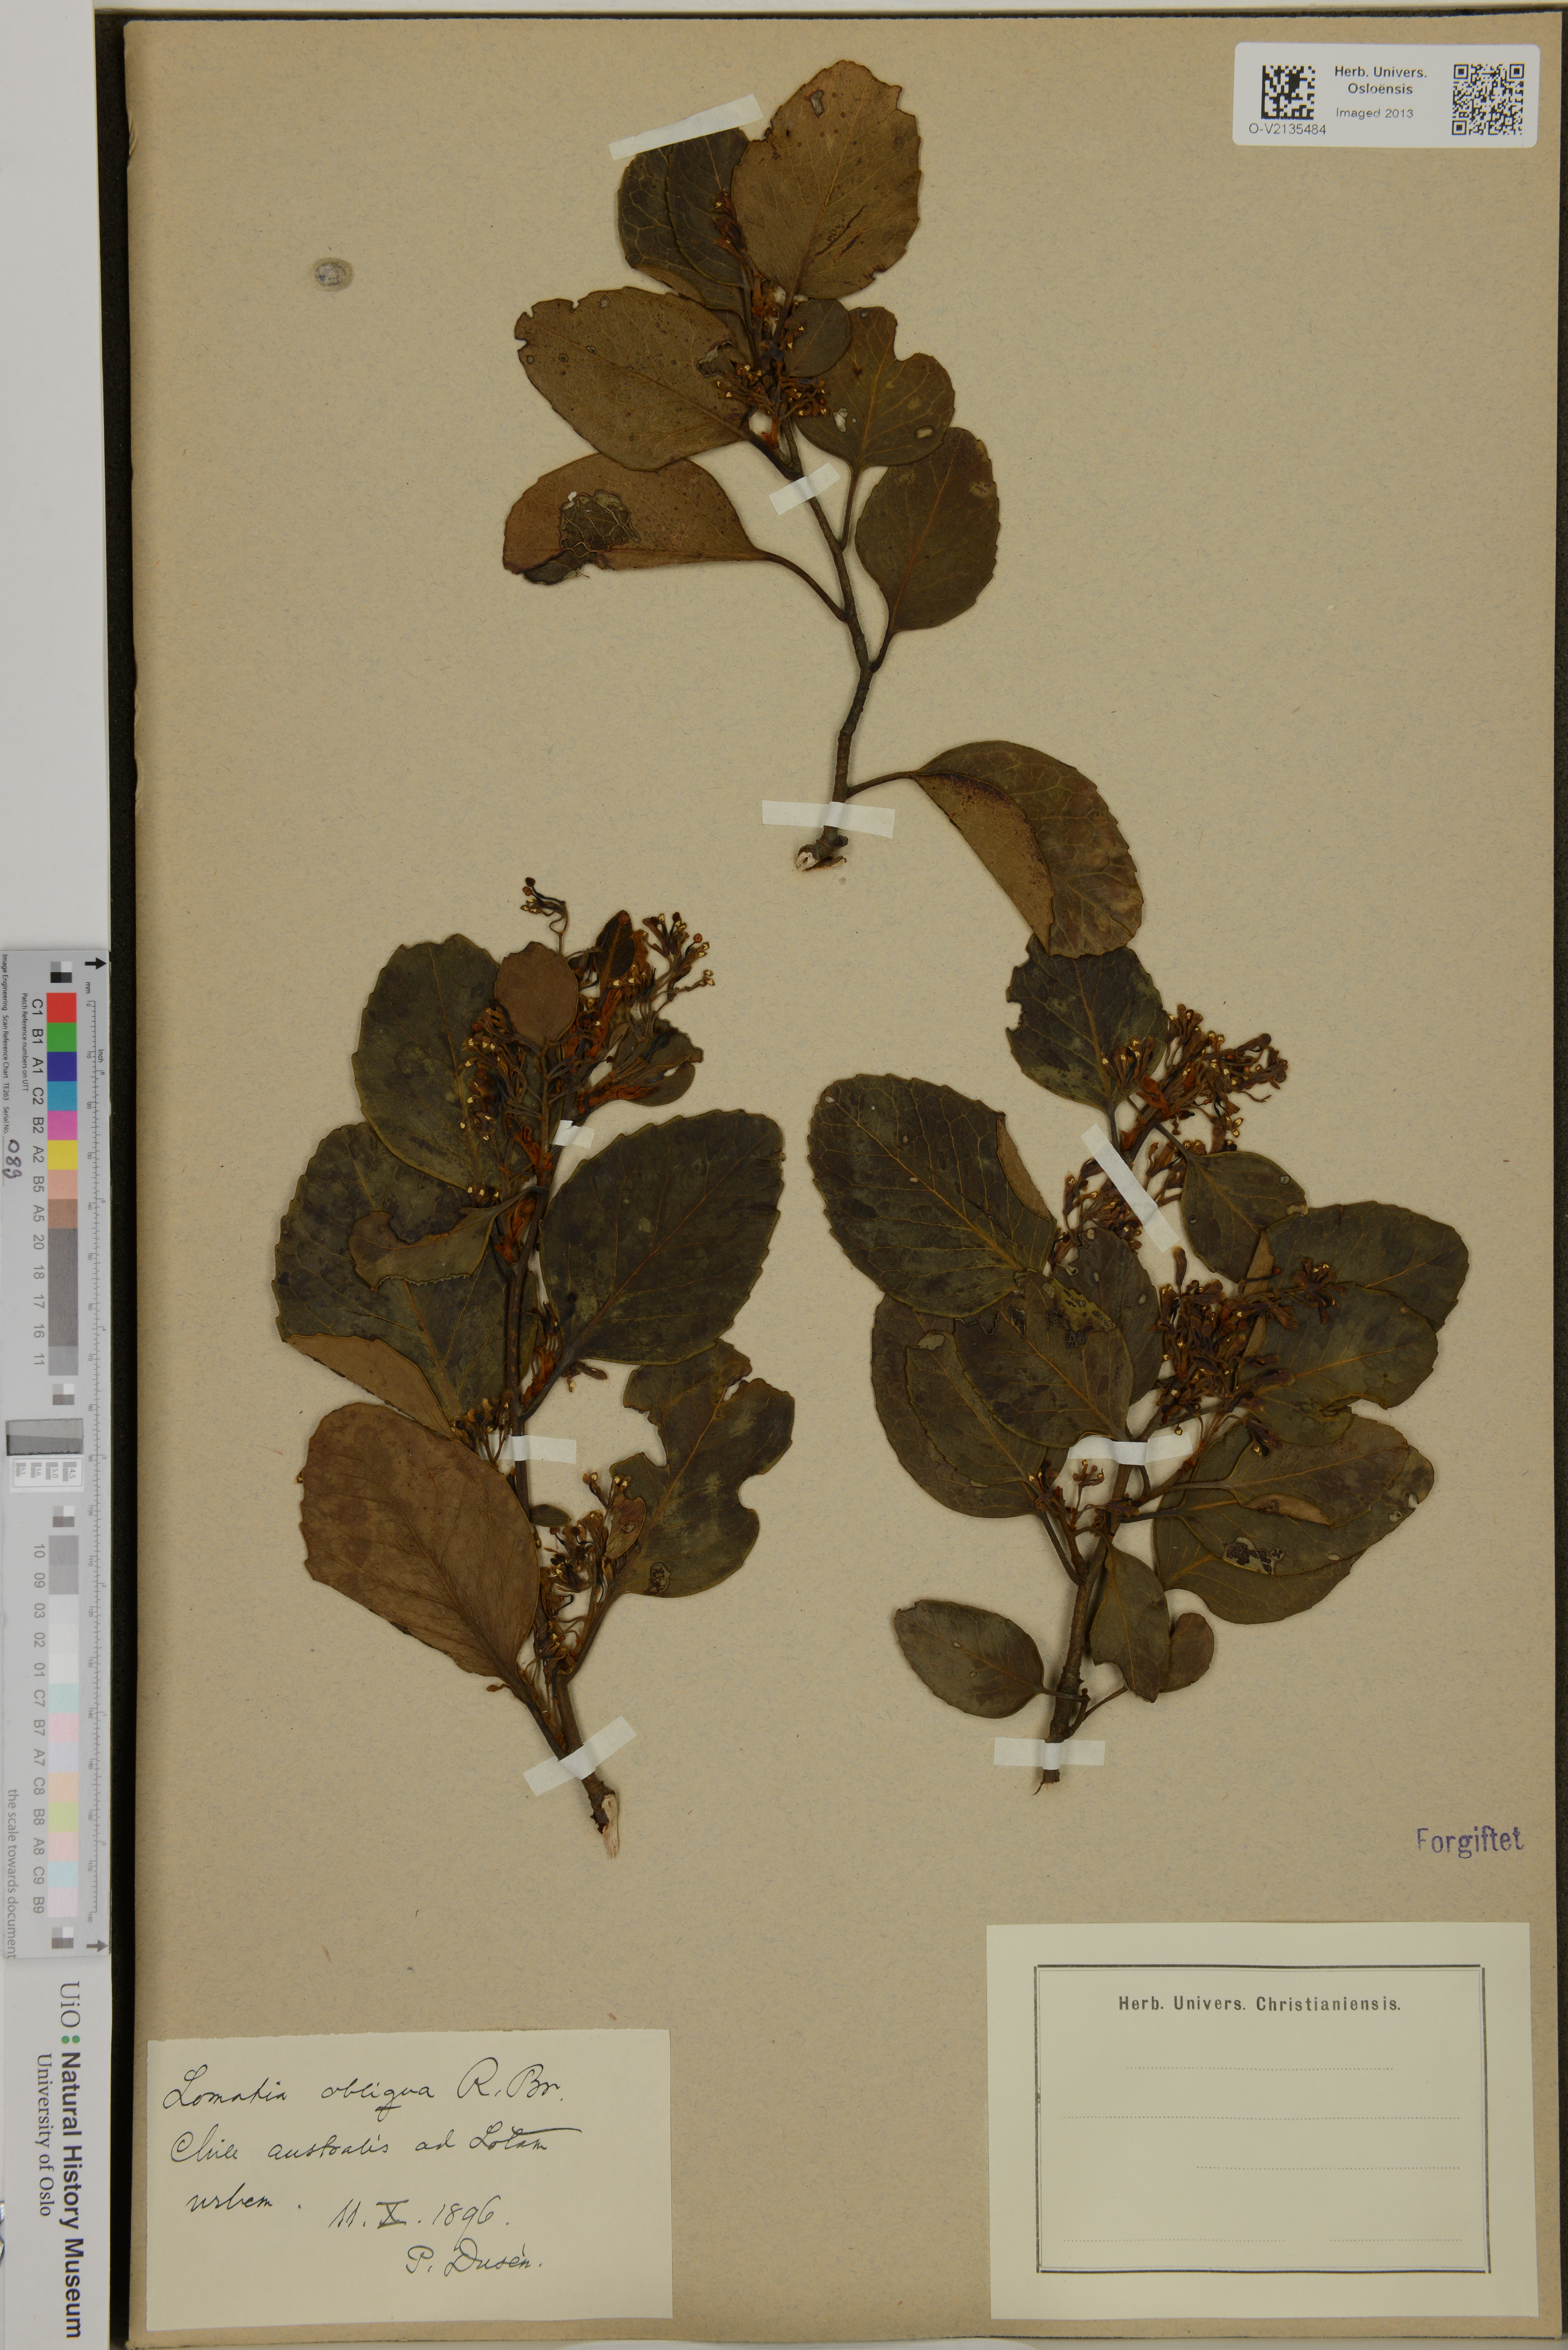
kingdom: Plantae
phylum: Tracheophyta
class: Magnoliopsida
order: Proteales
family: Proteaceae
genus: Lomatia
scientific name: Lomatia hirsuta
